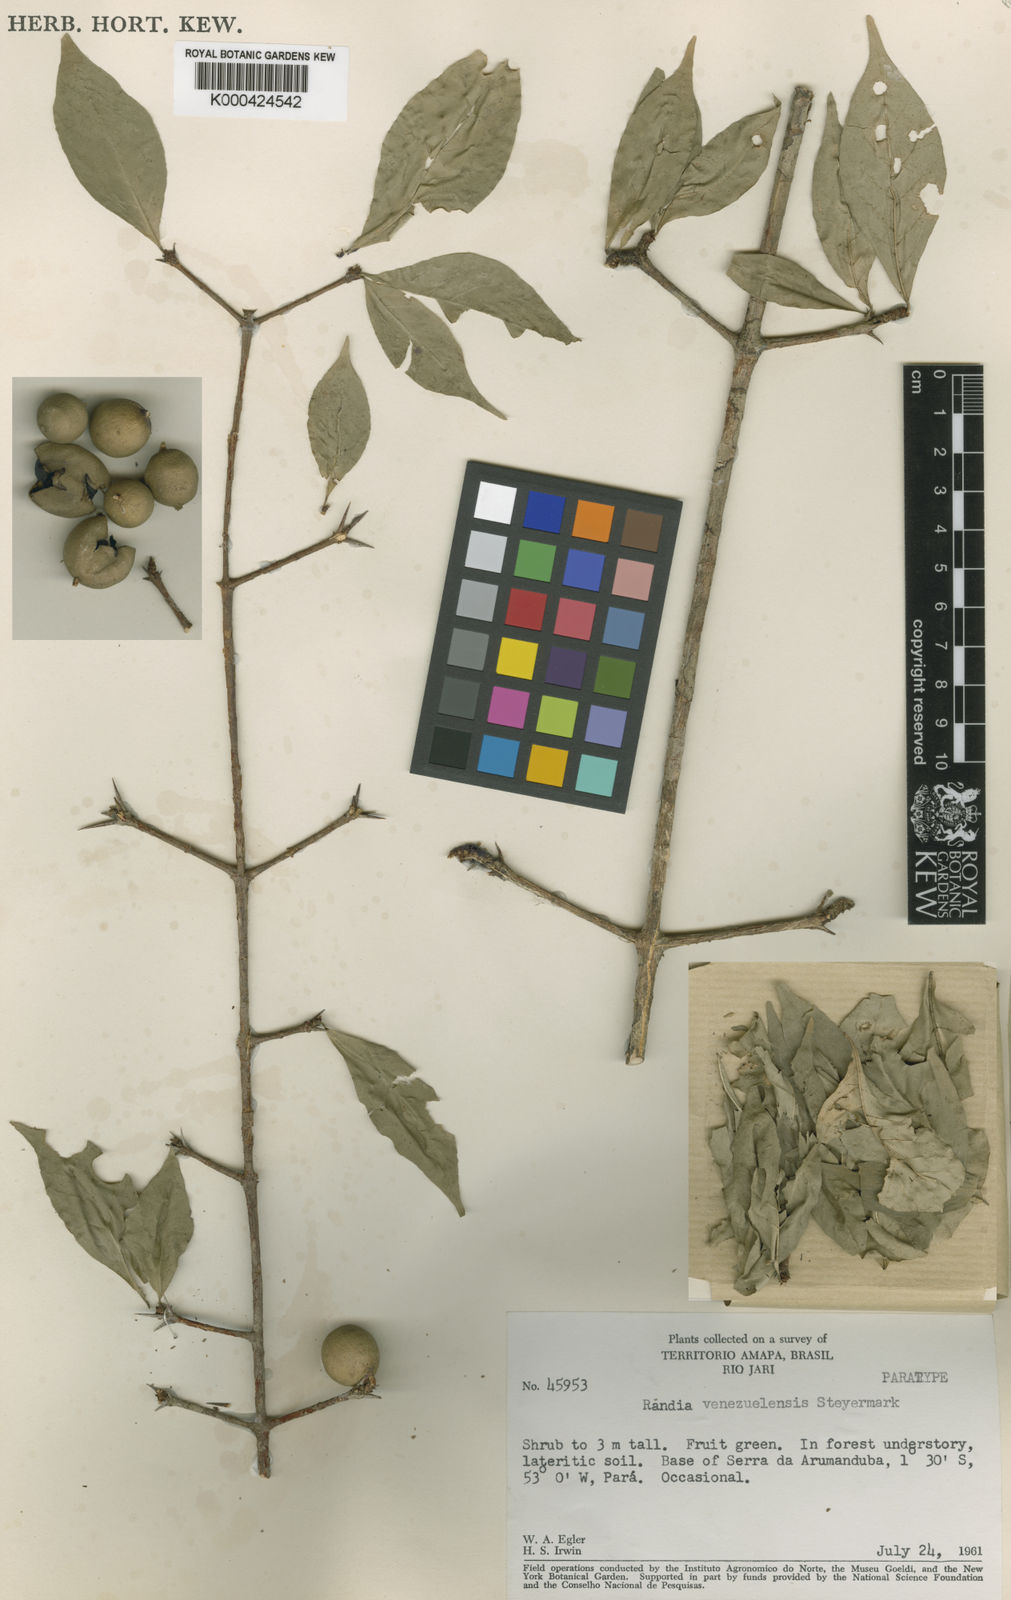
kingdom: Plantae
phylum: Tracheophyta
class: Magnoliopsida
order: Gentianales
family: Rubiaceae
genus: Randia
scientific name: Randia venezuelensis
